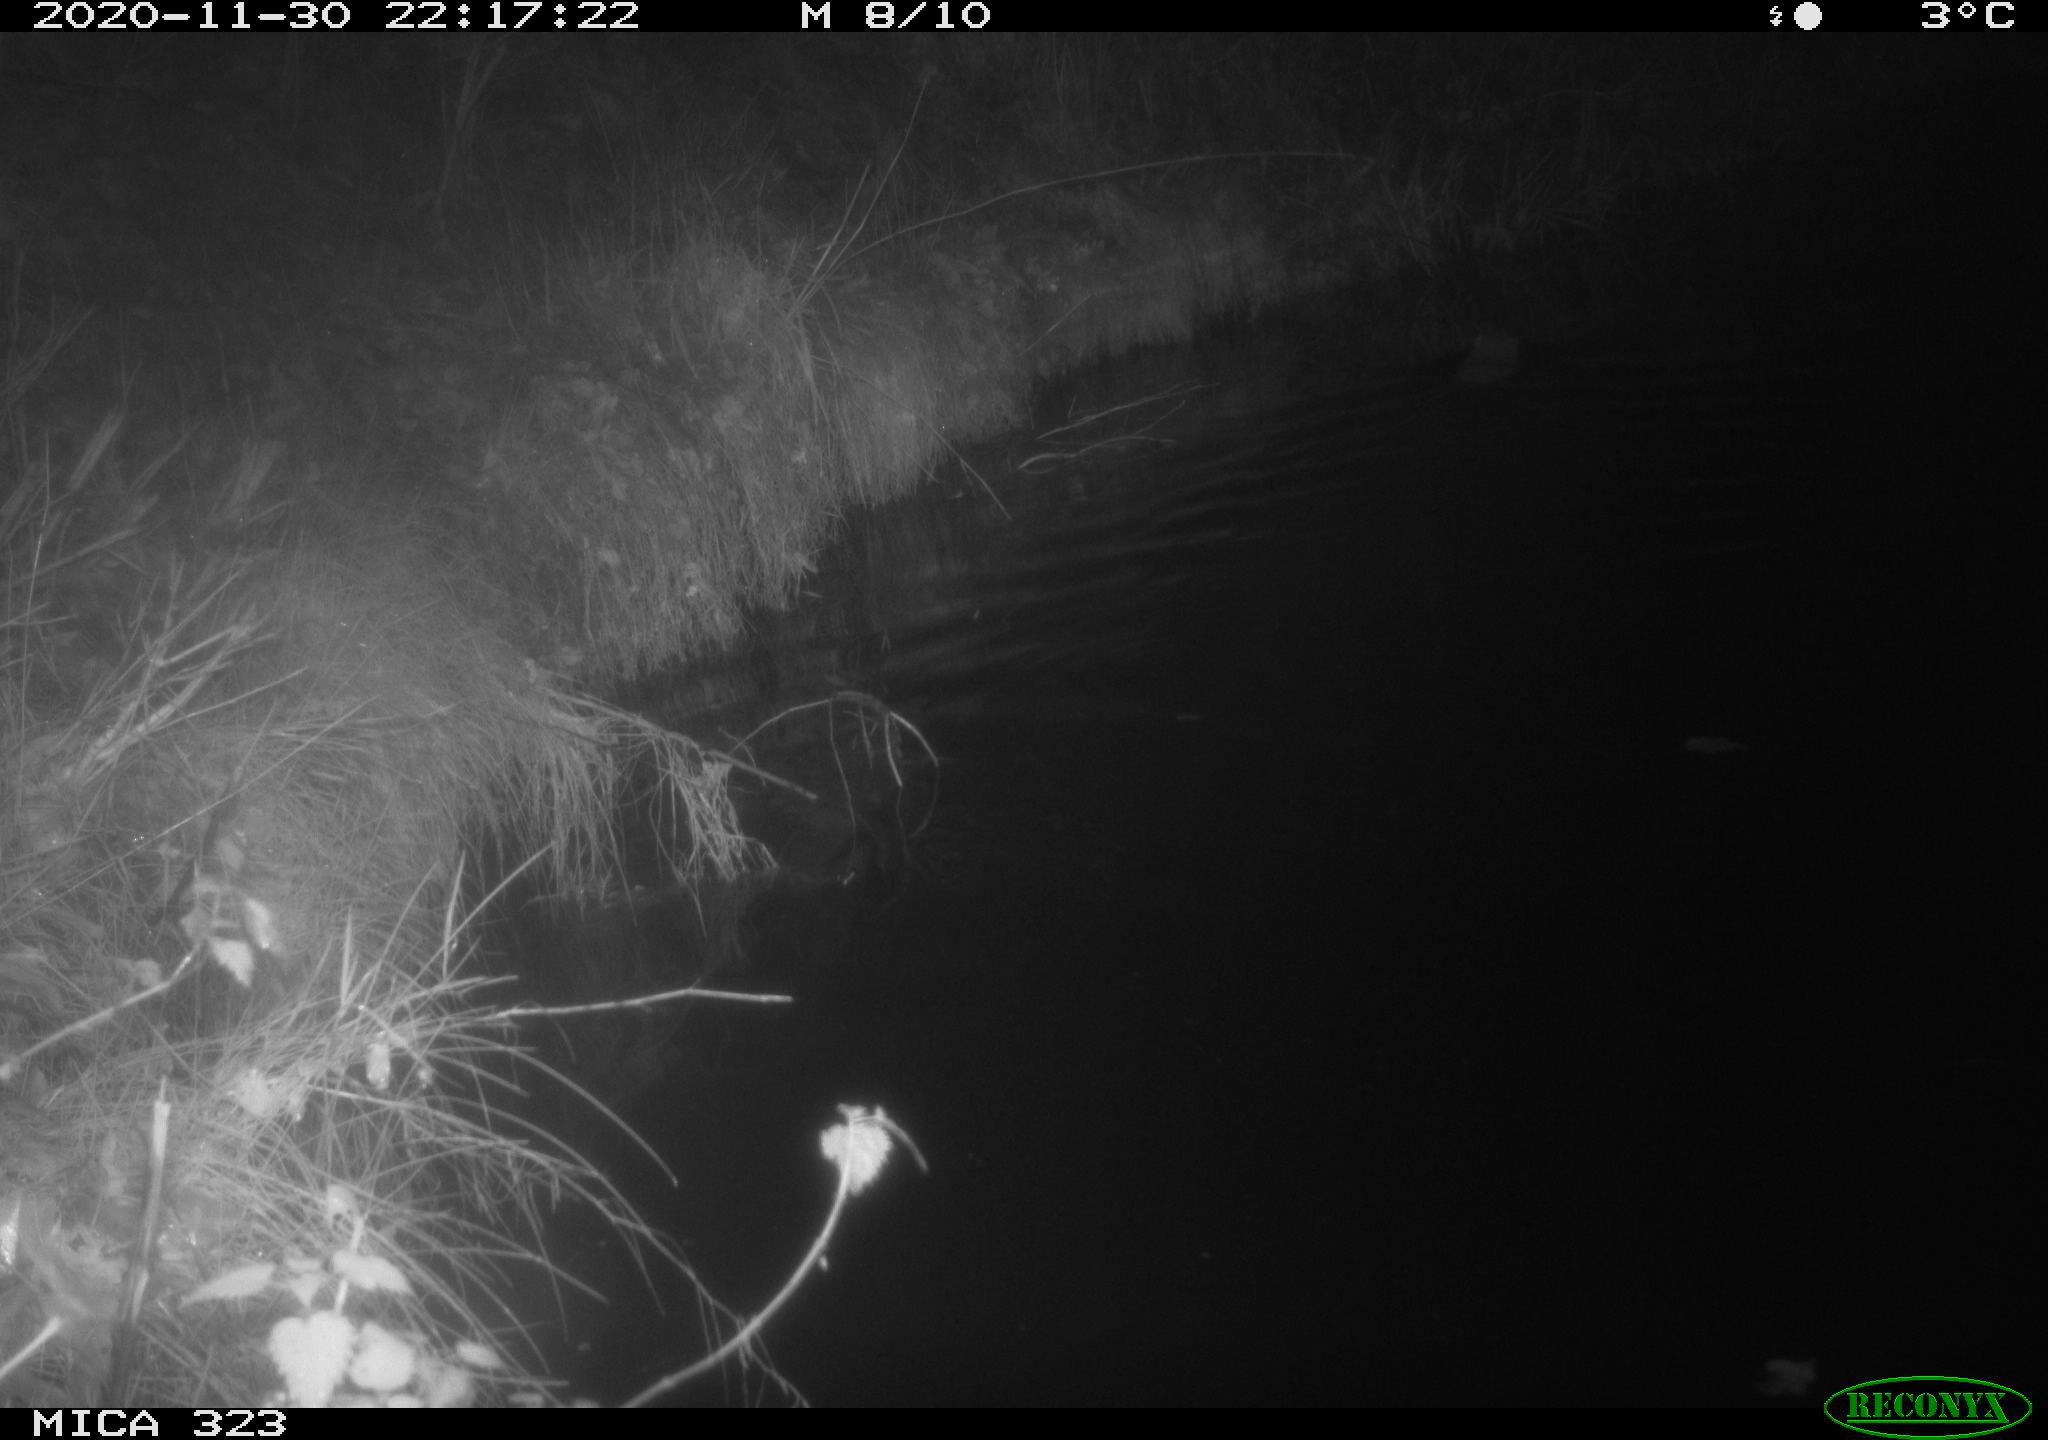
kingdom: Animalia
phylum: Chordata
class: Mammalia
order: Rodentia
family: Myocastoridae
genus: Myocastor
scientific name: Myocastor coypus
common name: Coypu
